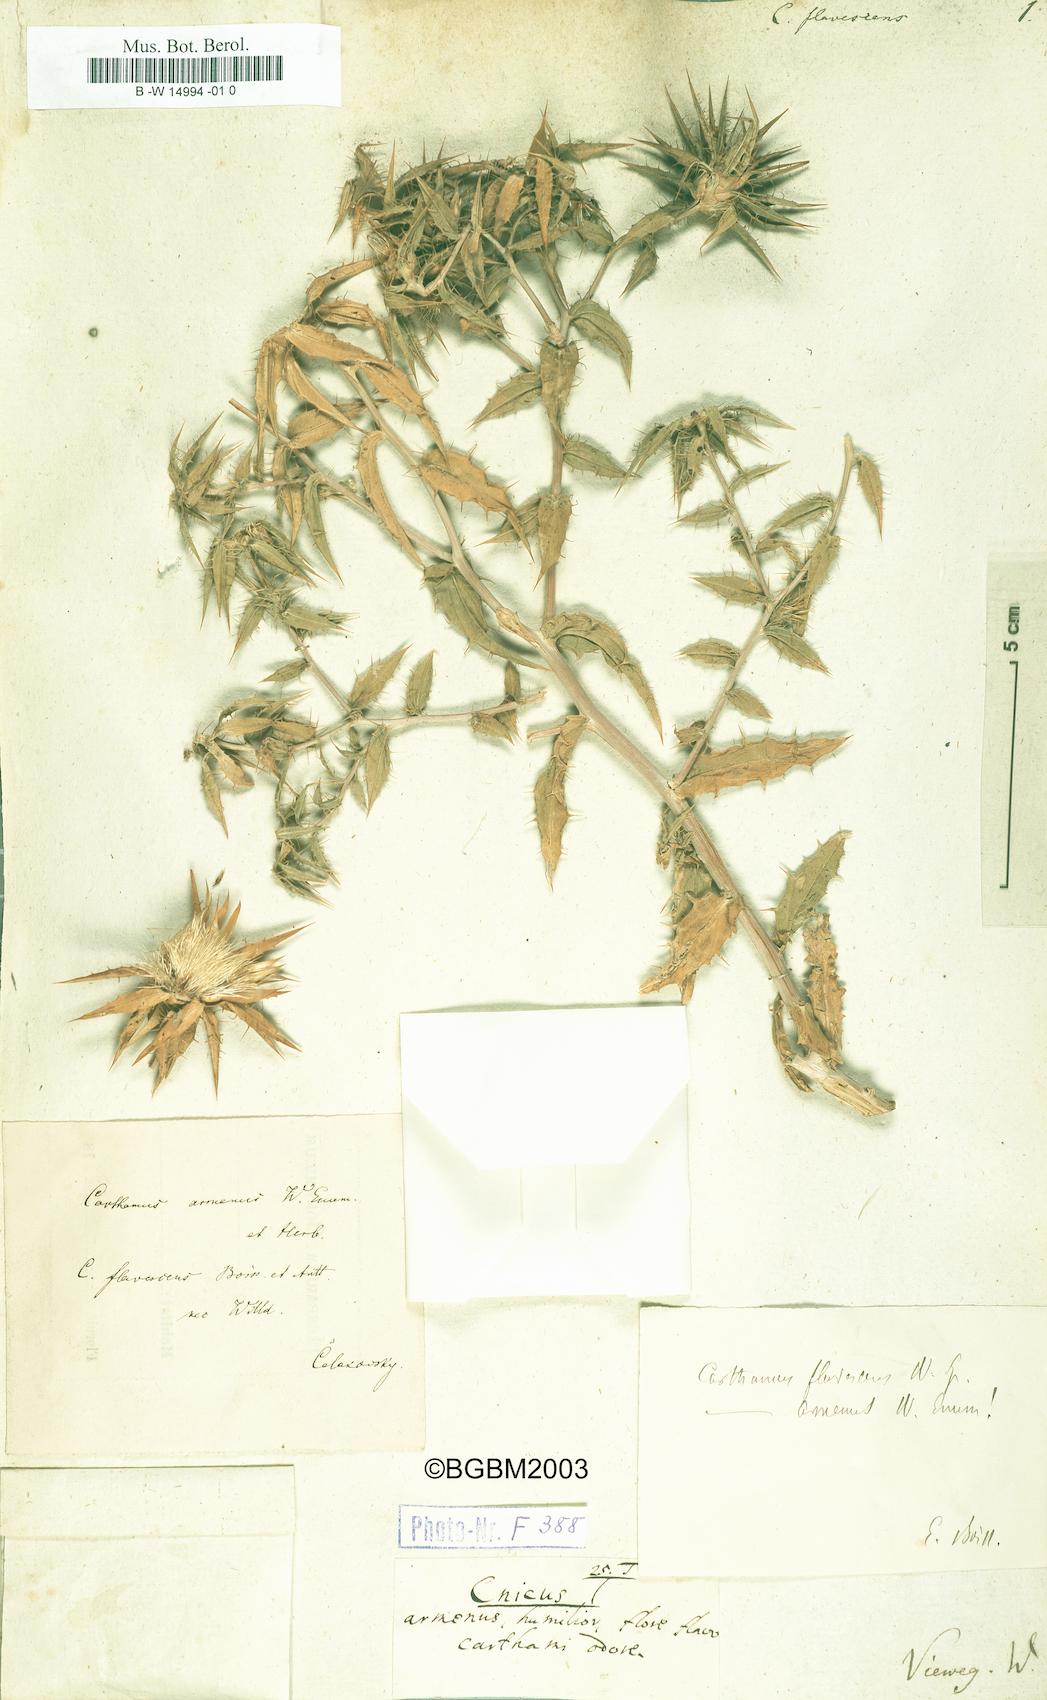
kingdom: Plantae
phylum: Tracheophyta
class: Magnoliopsida
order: Asterales
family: Asteraceae
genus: Carthamus
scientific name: Carthamus persicus
